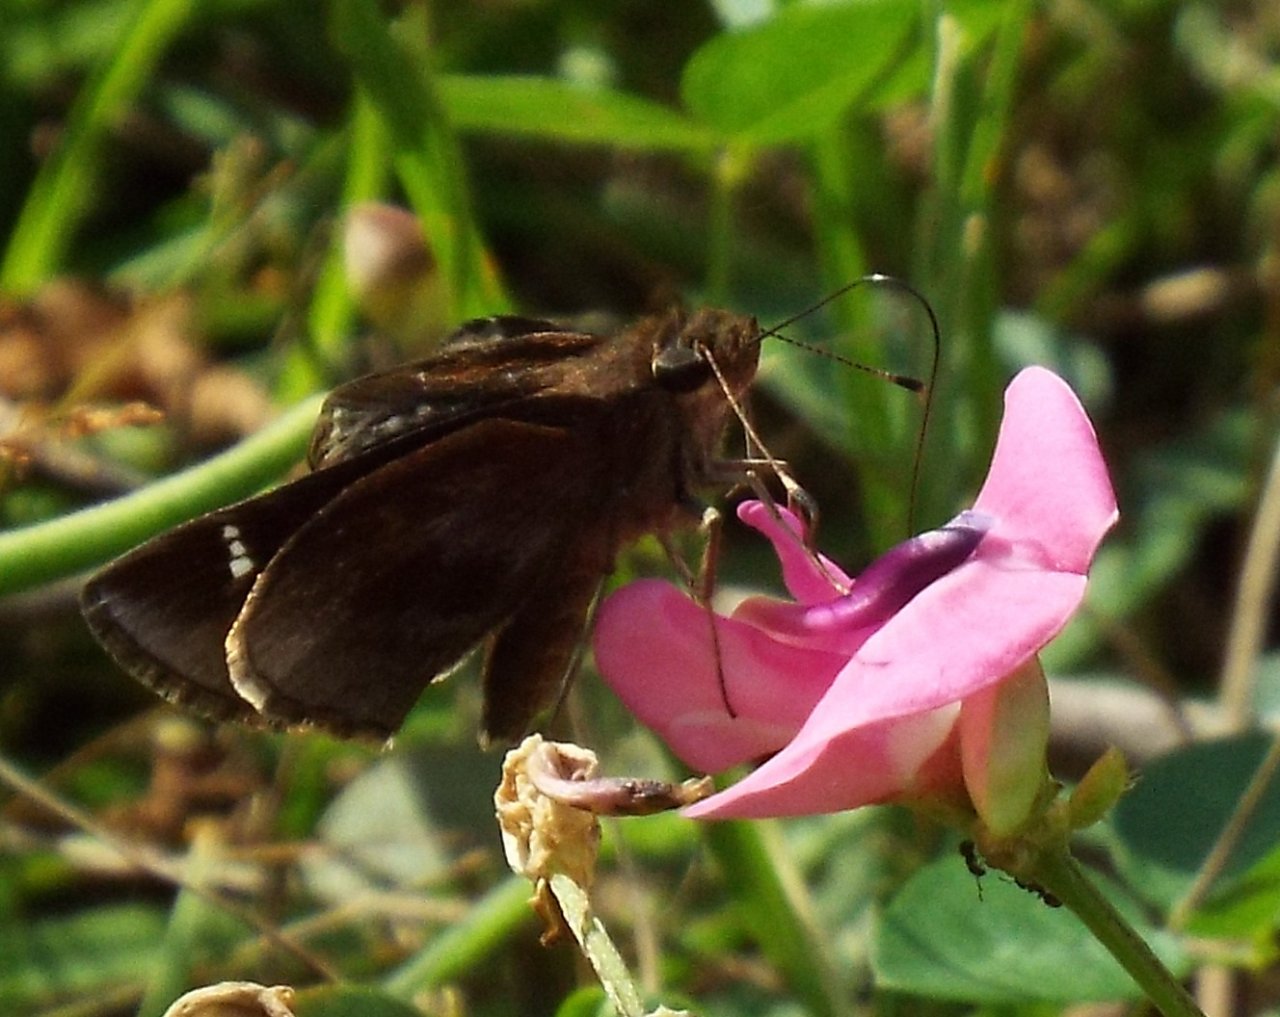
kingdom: Animalia
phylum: Arthropoda
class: Insecta
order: Lepidoptera
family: Hesperiidae
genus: Lerema
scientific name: Lerema accius
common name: Clouded Skipper
